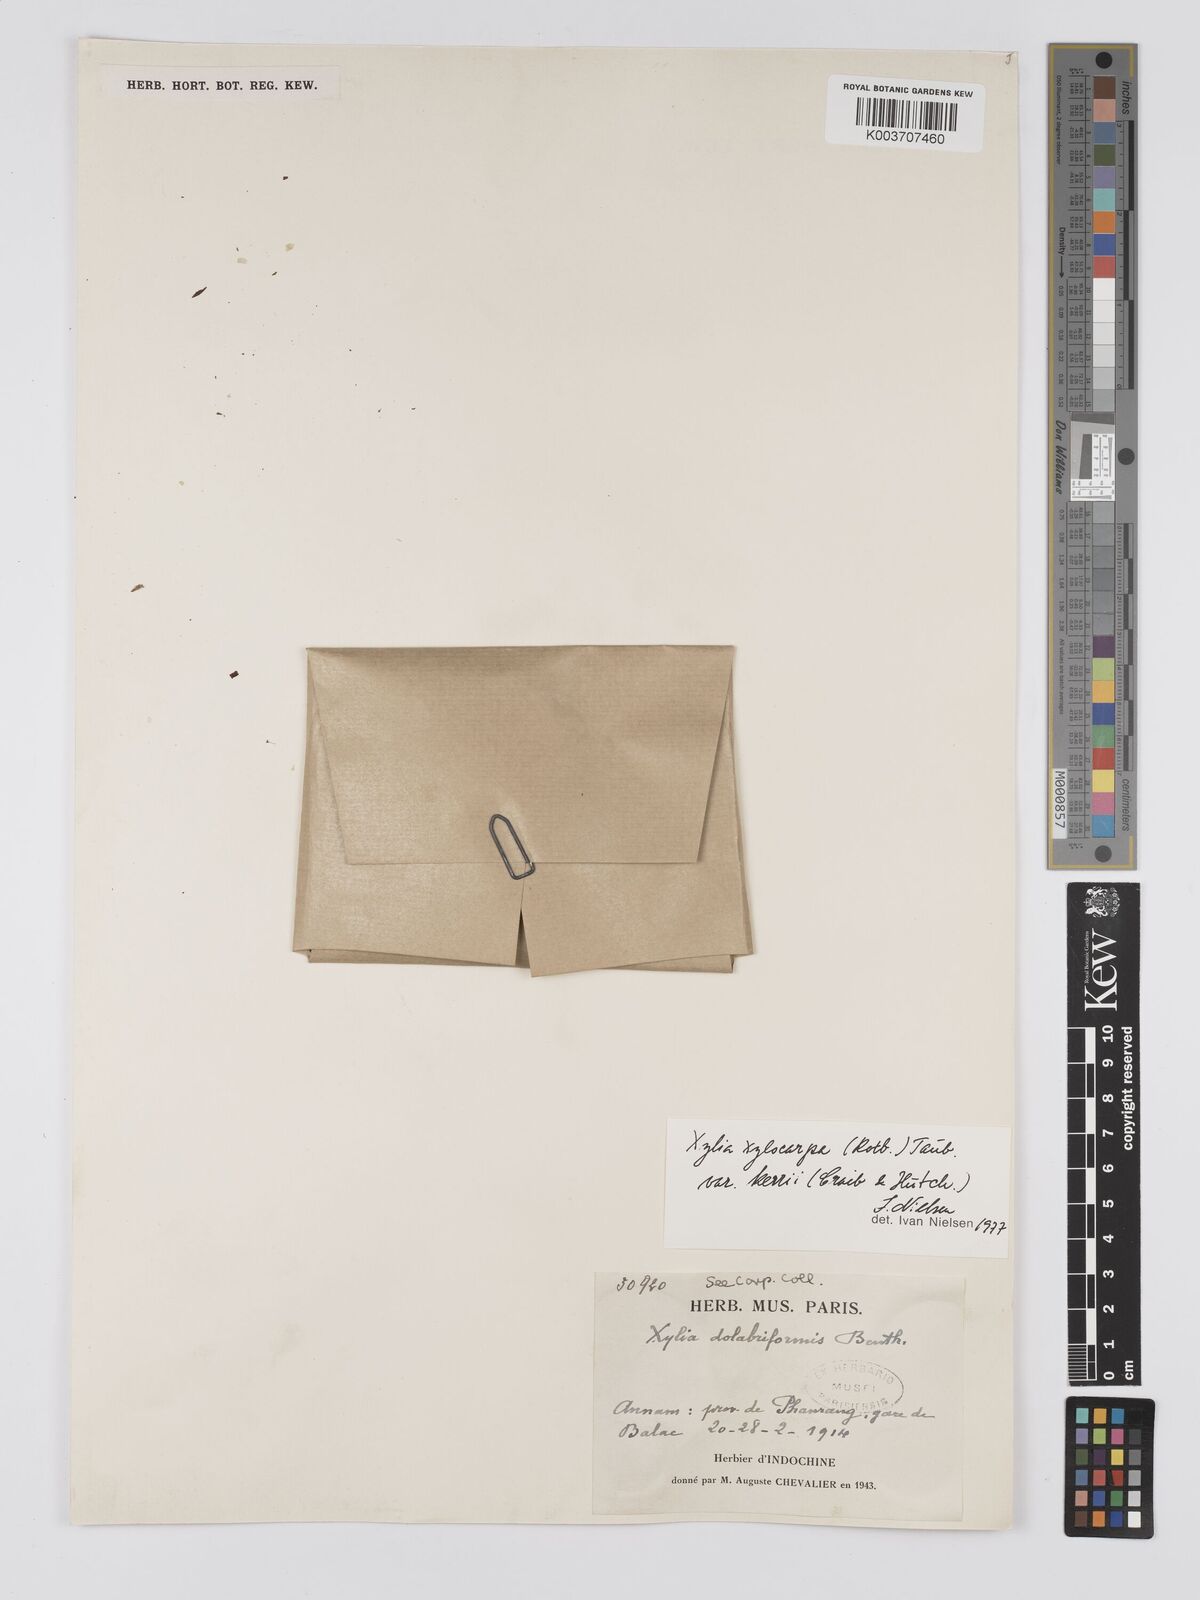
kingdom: Plantae
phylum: Tracheophyta
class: Magnoliopsida
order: Fabales
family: Fabaceae
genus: Xylia
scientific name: Xylia xylocarpa
